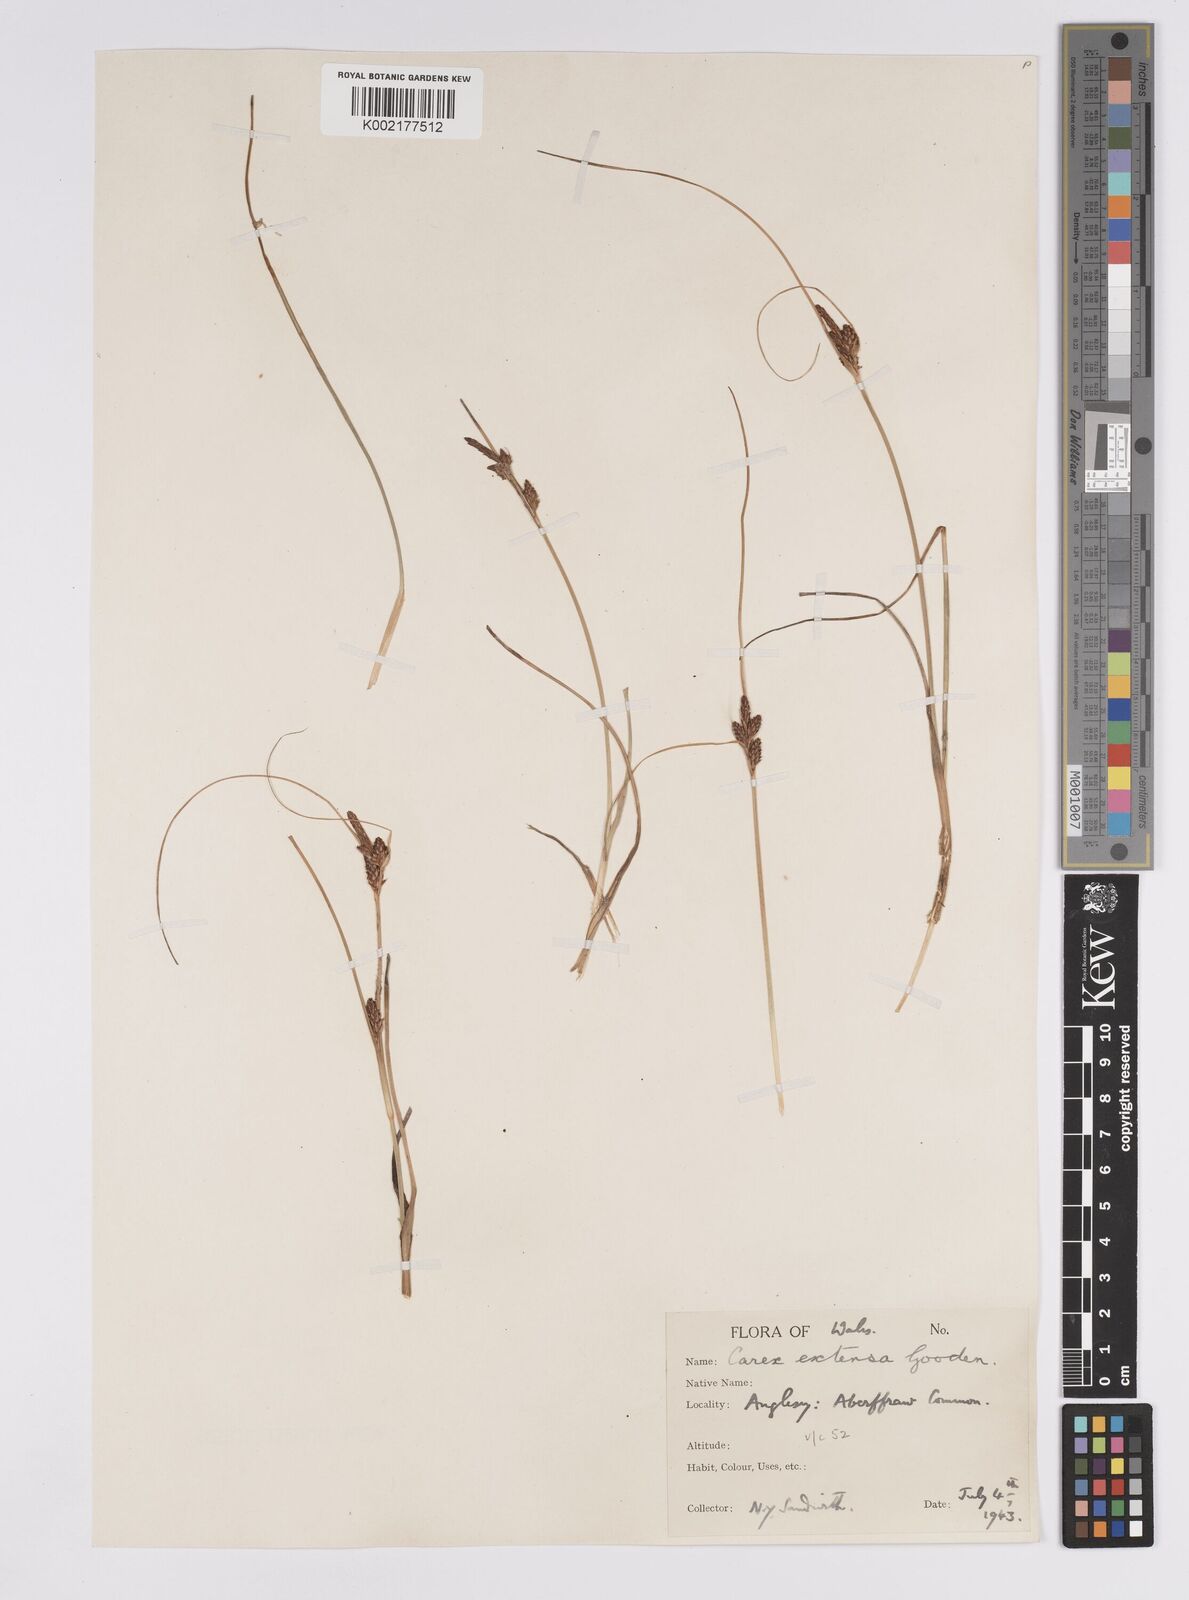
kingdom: Plantae
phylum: Tracheophyta
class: Liliopsida
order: Poales
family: Cyperaceae
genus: Carex
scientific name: Carex extensa
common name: Long-bracted sedge
